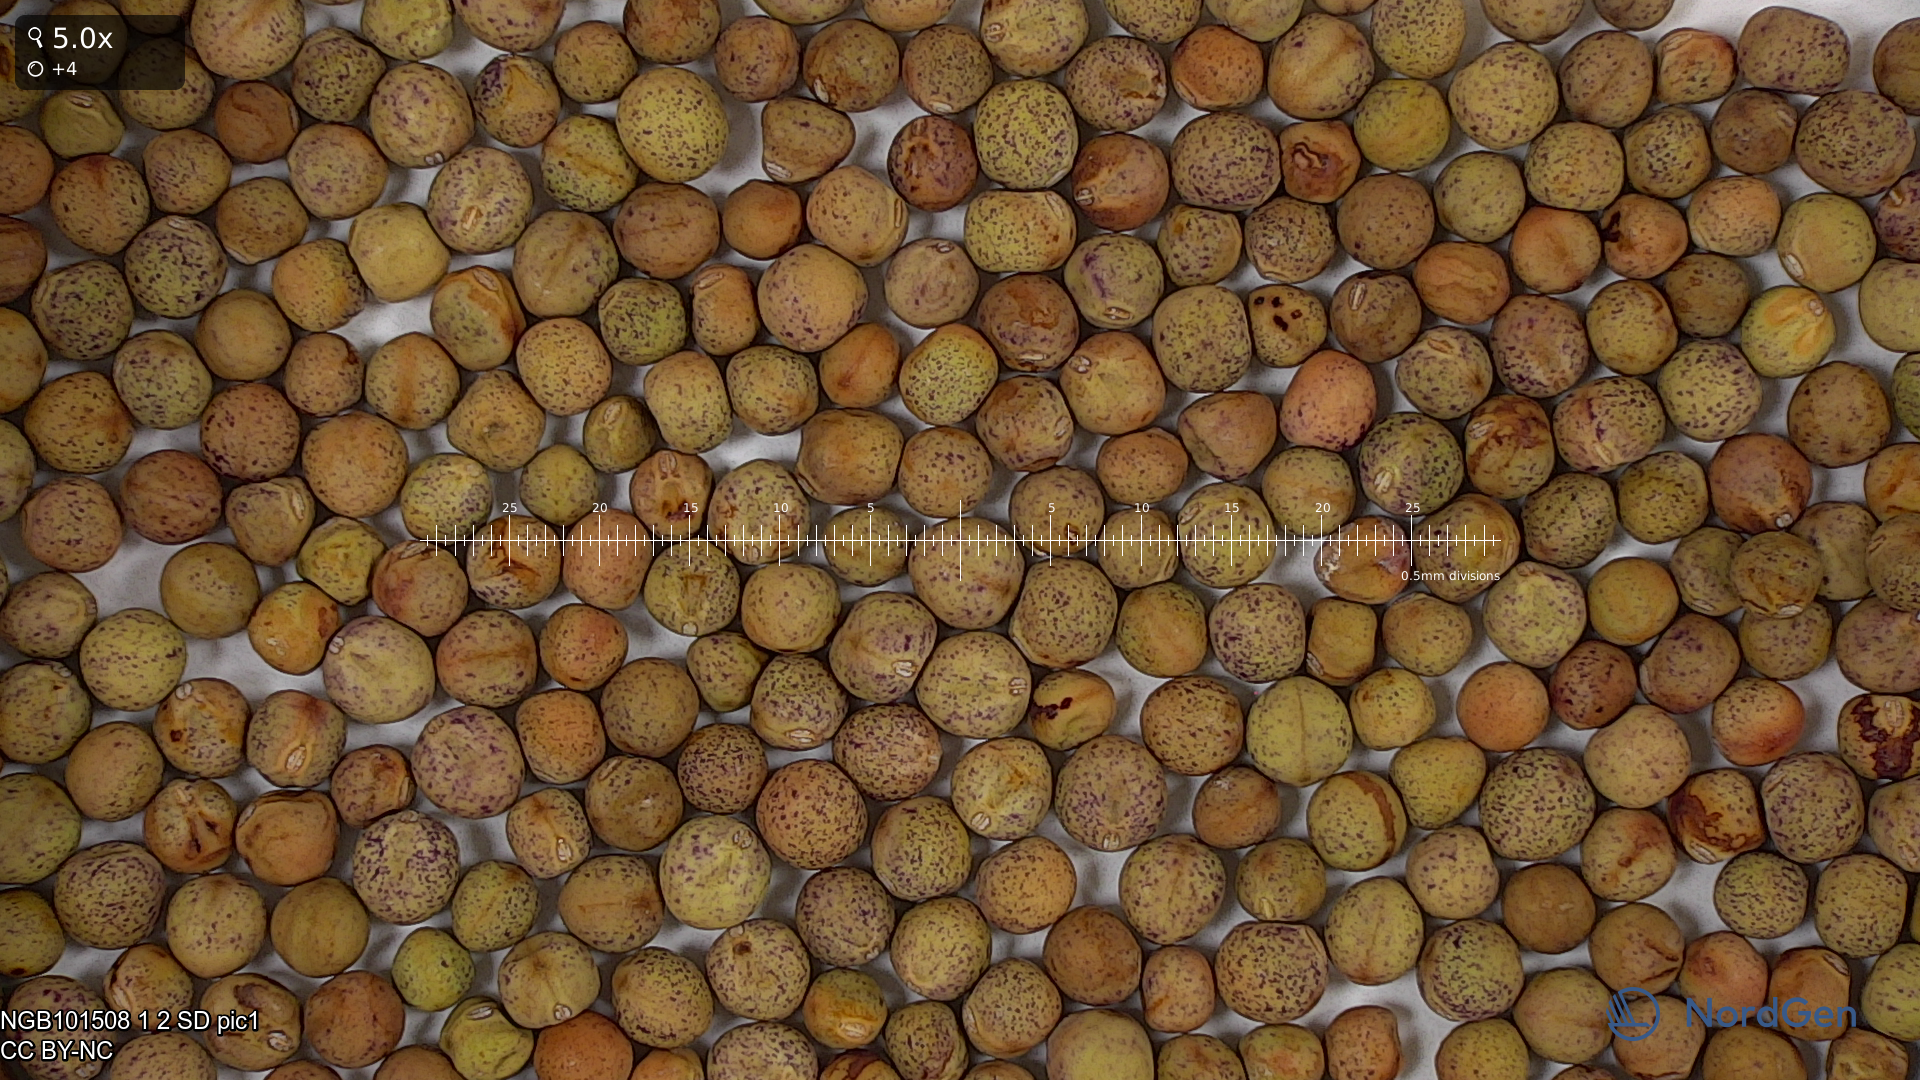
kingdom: Plantae
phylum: Tracheophyta
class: Magnoliopsida
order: Fabales
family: Fabaceae
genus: Lathyrus
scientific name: Lathyrus oleraceus
